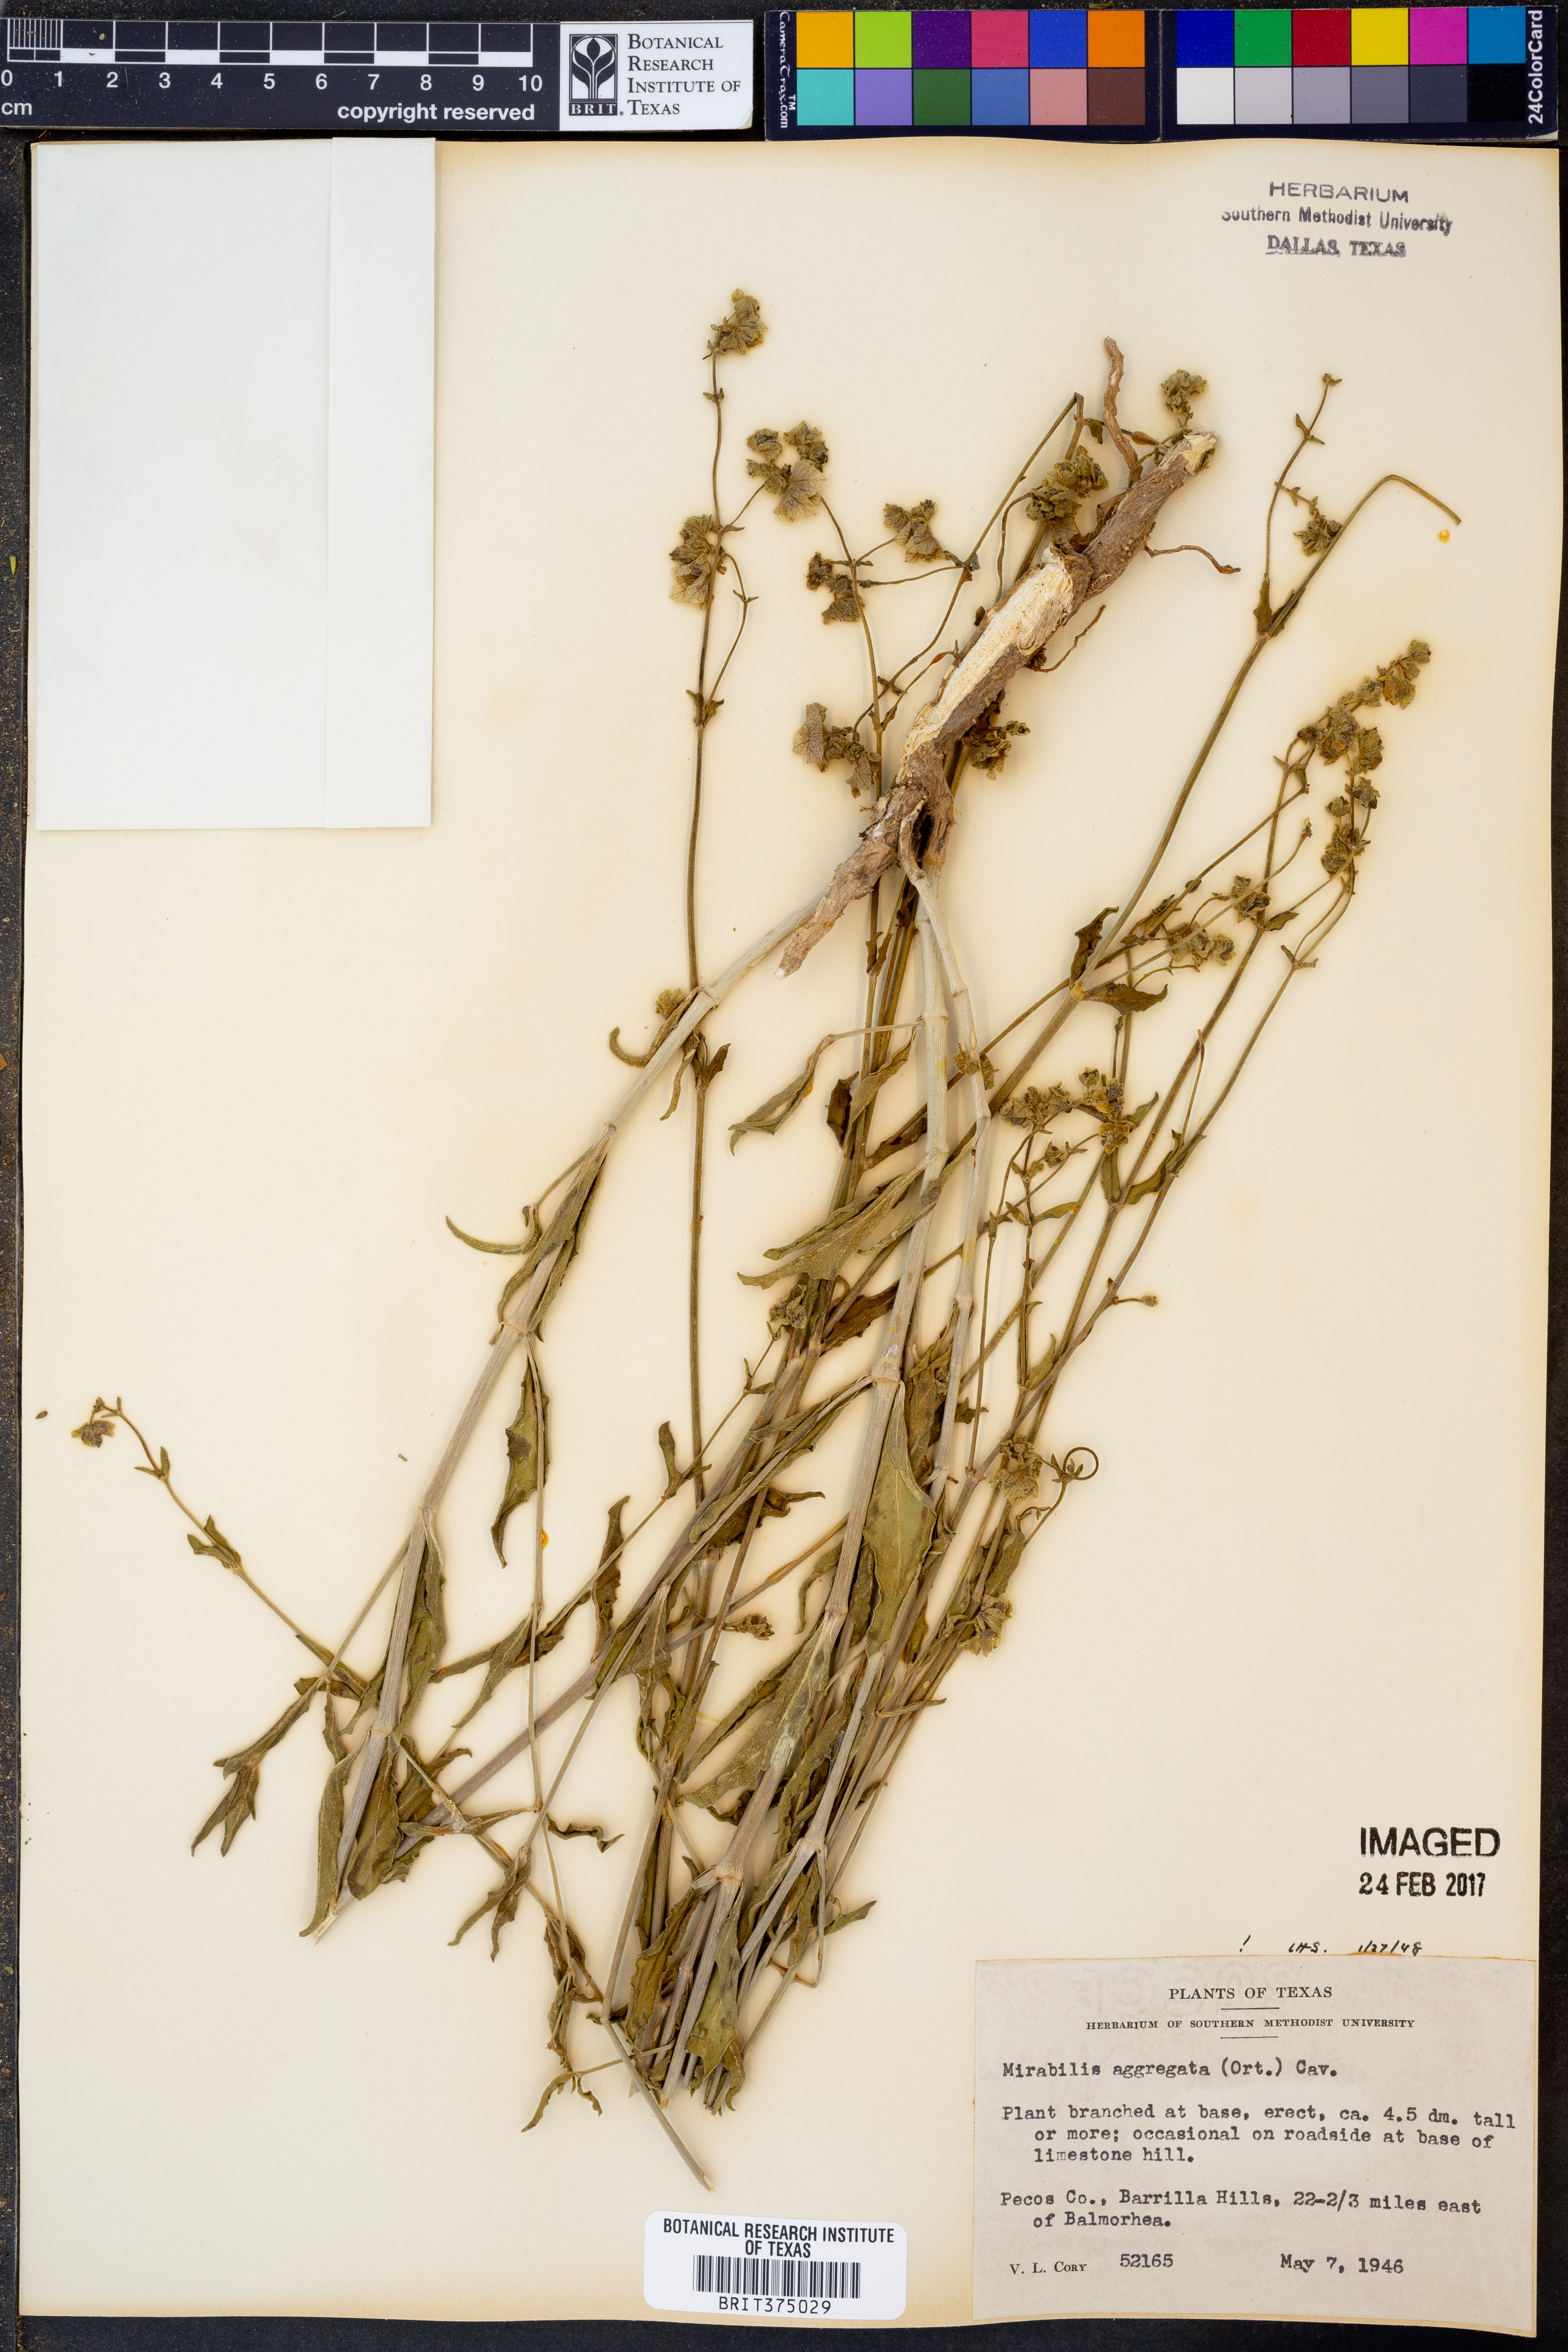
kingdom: Plantae
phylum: Tracheophyta
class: Magnoliopsida
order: Caryophyllales
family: Nyctaginaceae
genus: Mirabilis
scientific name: Mirabilis aggregata
